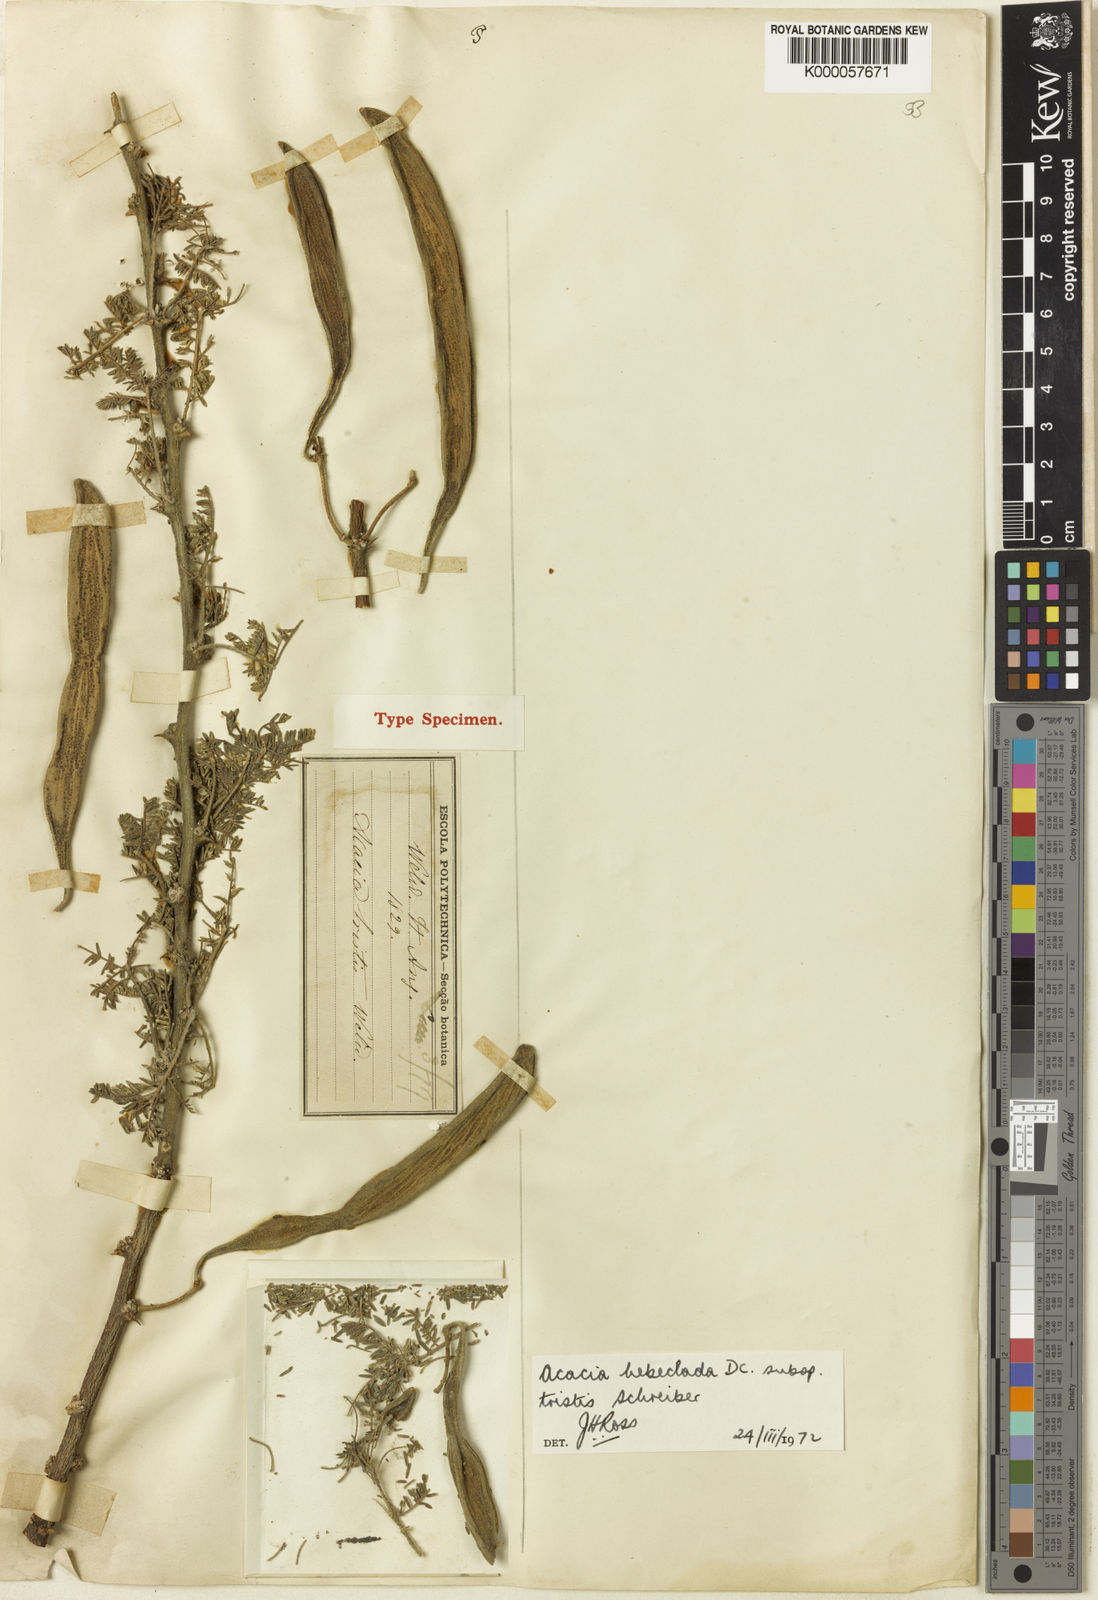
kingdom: Plantae
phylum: Tracheophyta
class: Magnoliopsida
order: Fabales
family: Fabaceae
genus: Vachellia
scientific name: Vachellia hebeclada
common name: Candle thorn
